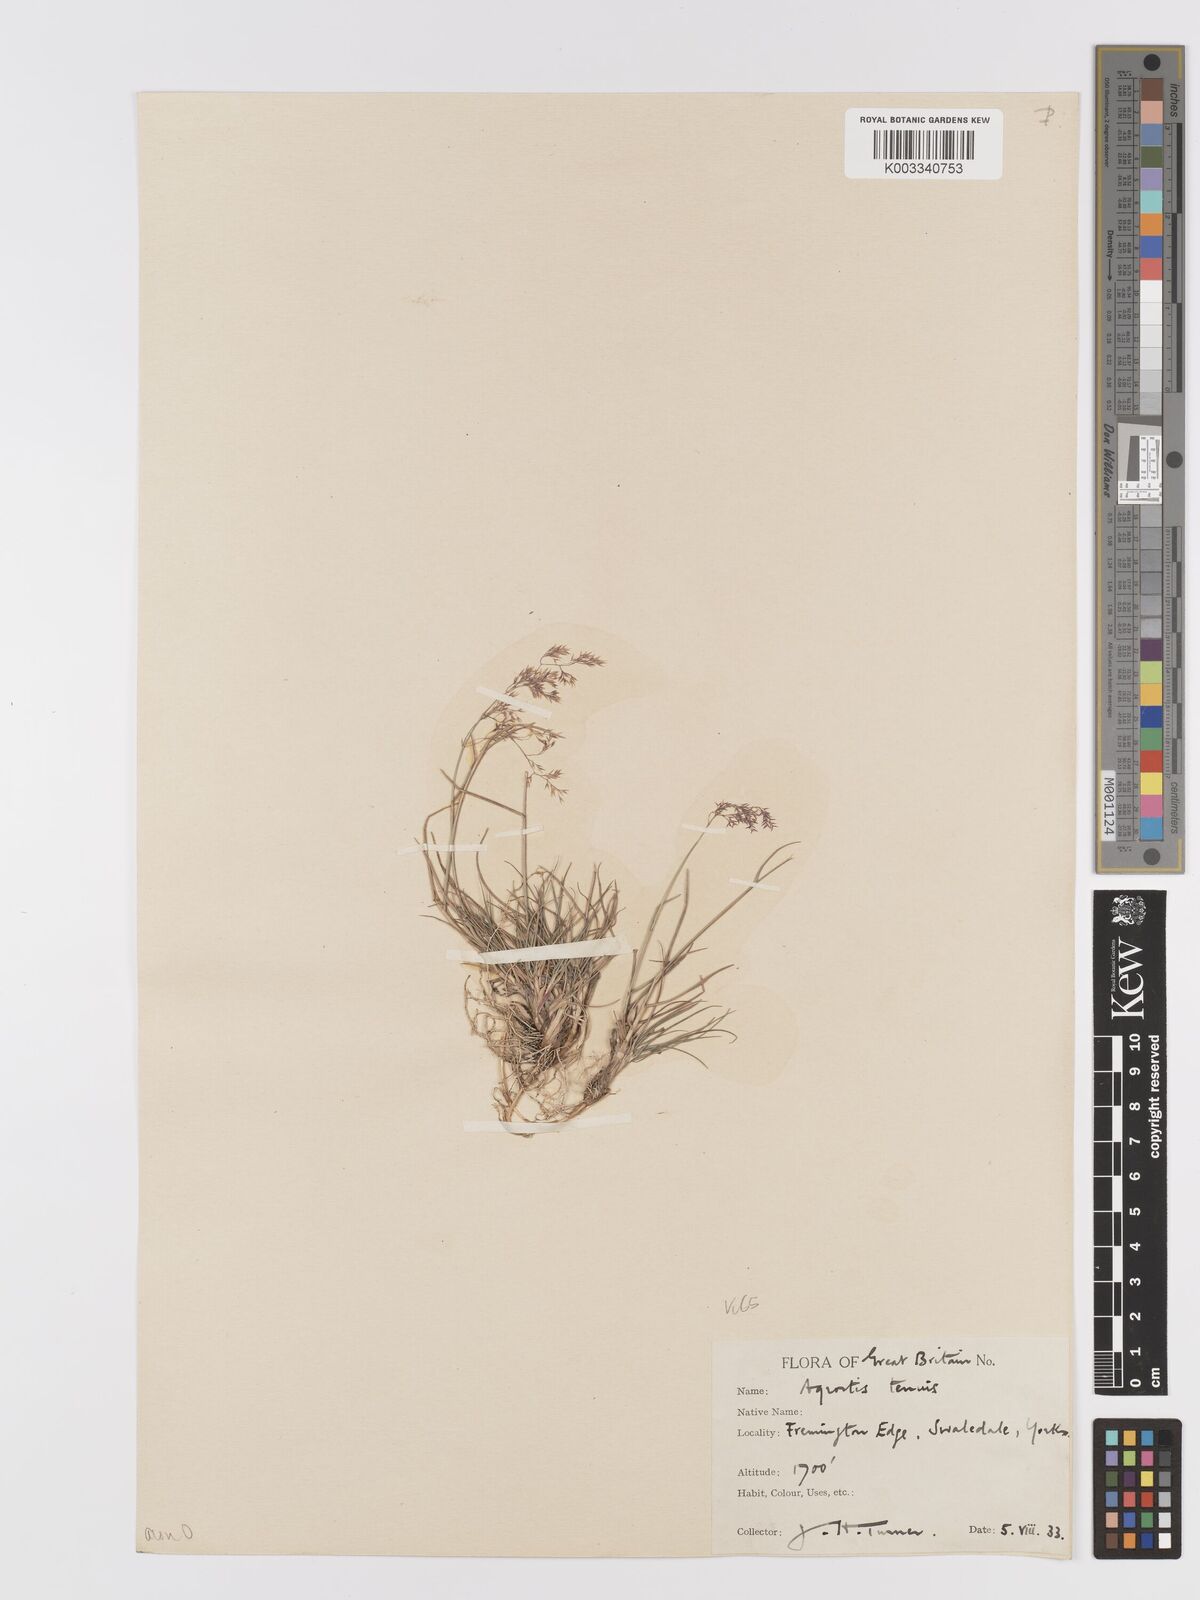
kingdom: Plantae
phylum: Tracheophyta
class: Liliopsida
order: Poales
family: Poaceae
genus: Agrostis
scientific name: Agrostis capillaris
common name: Colonial bentgrass
